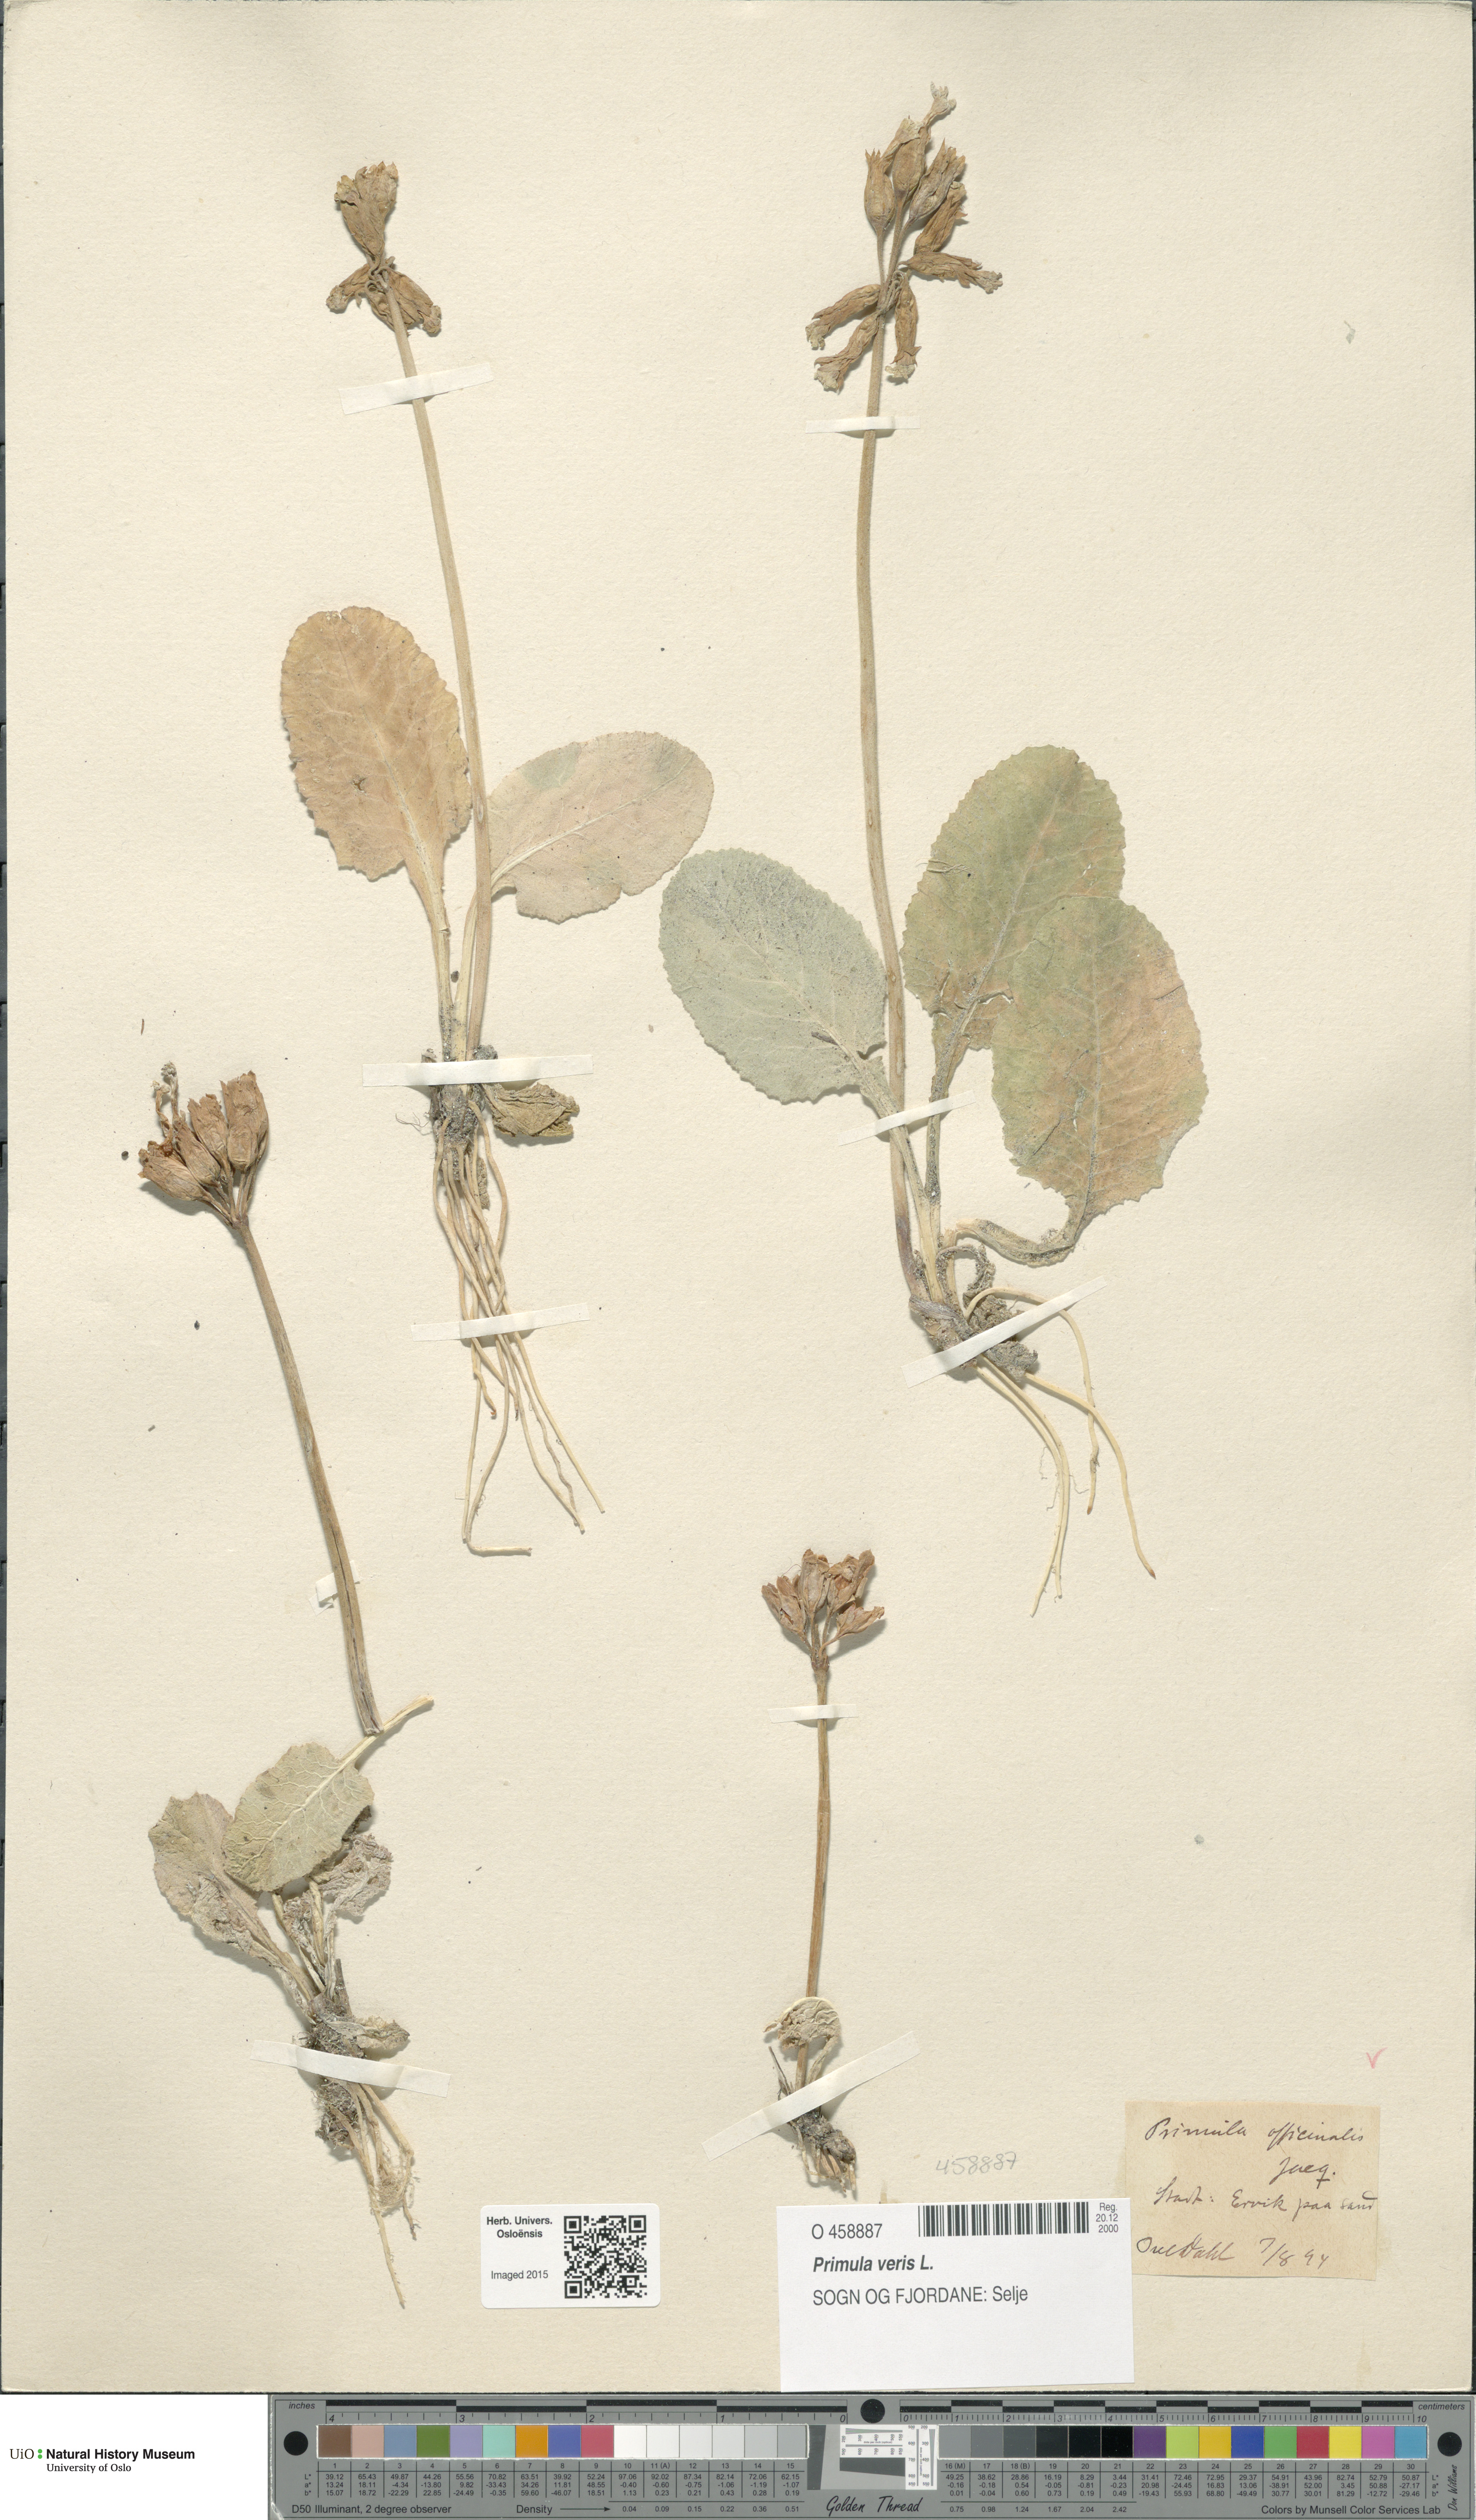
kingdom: Plantae
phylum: Tracheophyta
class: Magnoliopsida
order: Ericales
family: Primulaceae
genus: Primula
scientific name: Primula veris
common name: Cowslip
